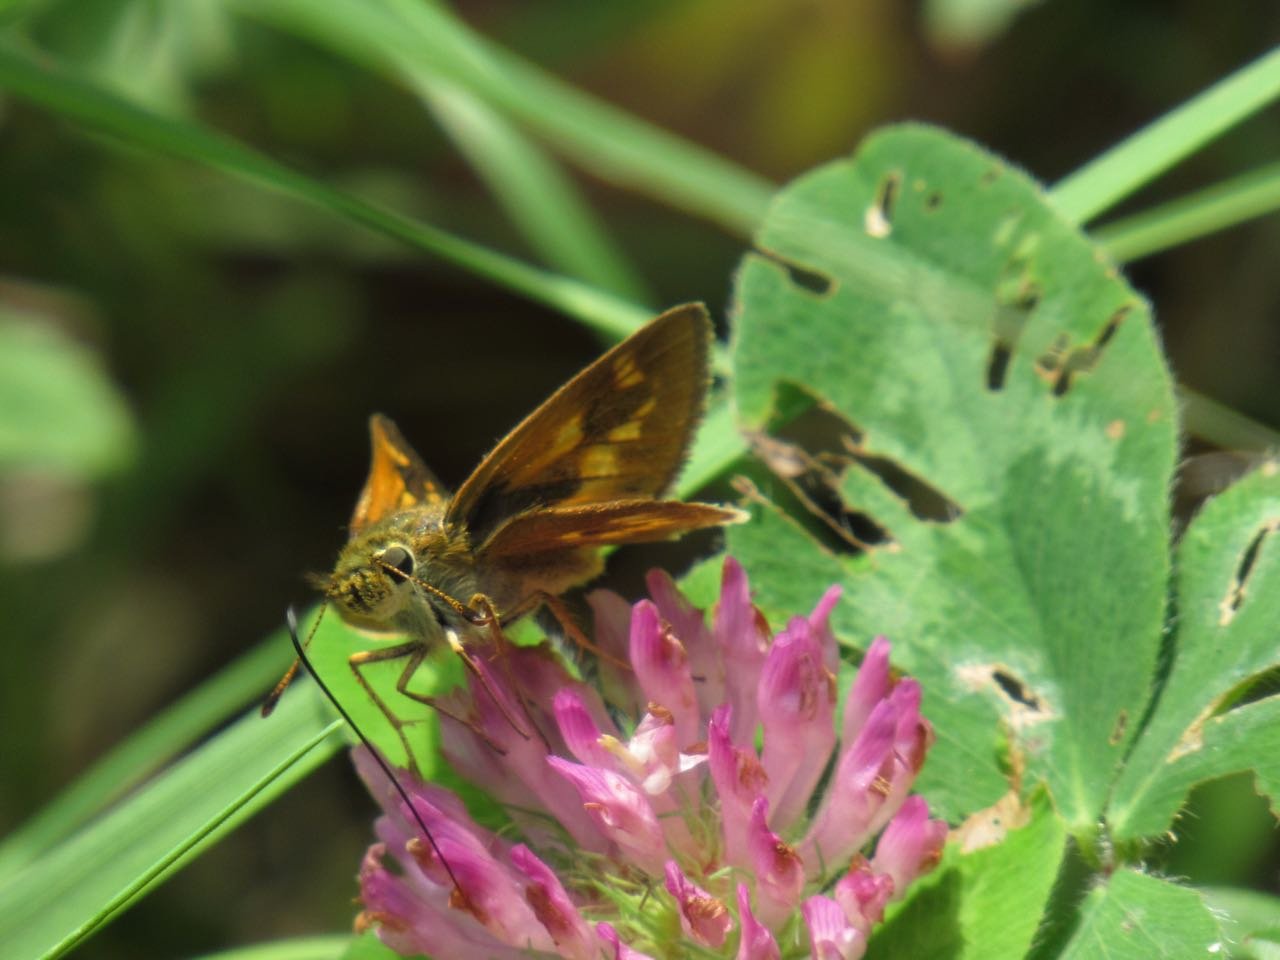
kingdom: Animalia
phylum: Arthropoda
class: Insecta
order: Lepidoptera
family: Hesperiidae
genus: Polites
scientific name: Polites
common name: Long Dash Skipper
